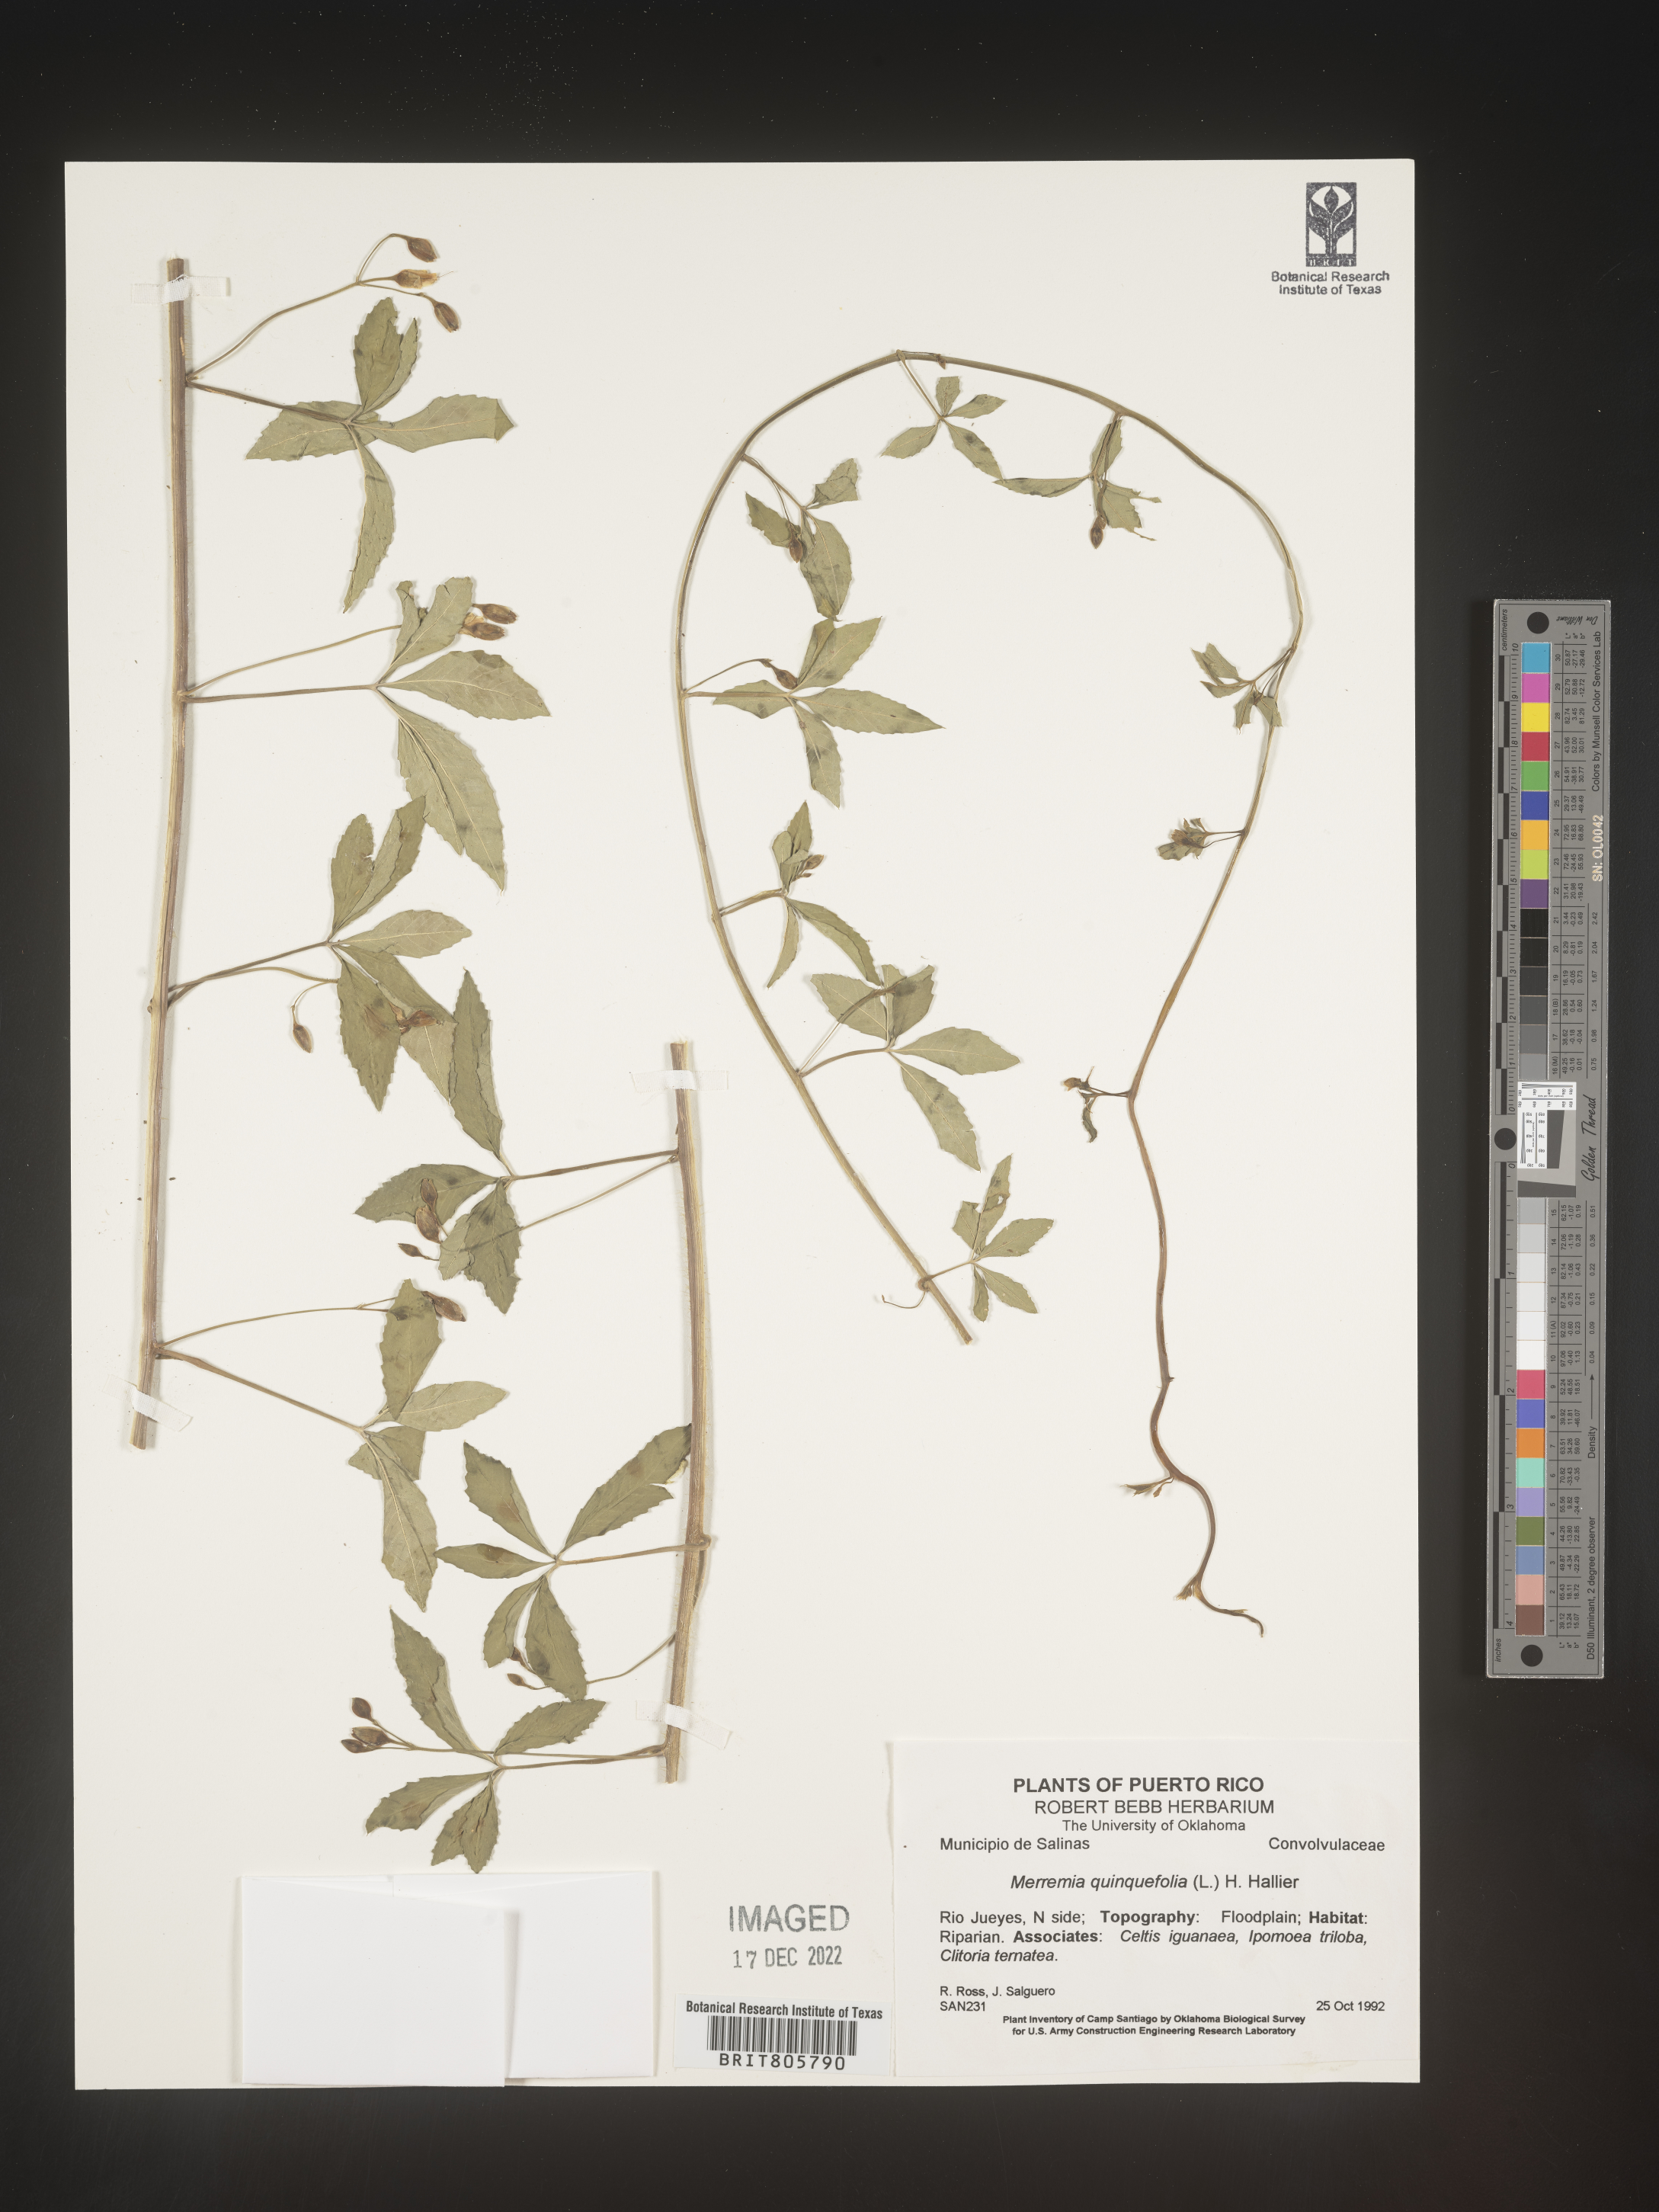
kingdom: Plantae
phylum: Tracheophyta
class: Magnoliopsida
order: Solanales
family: Convolvulaceae
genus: Merremia
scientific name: Merremia
